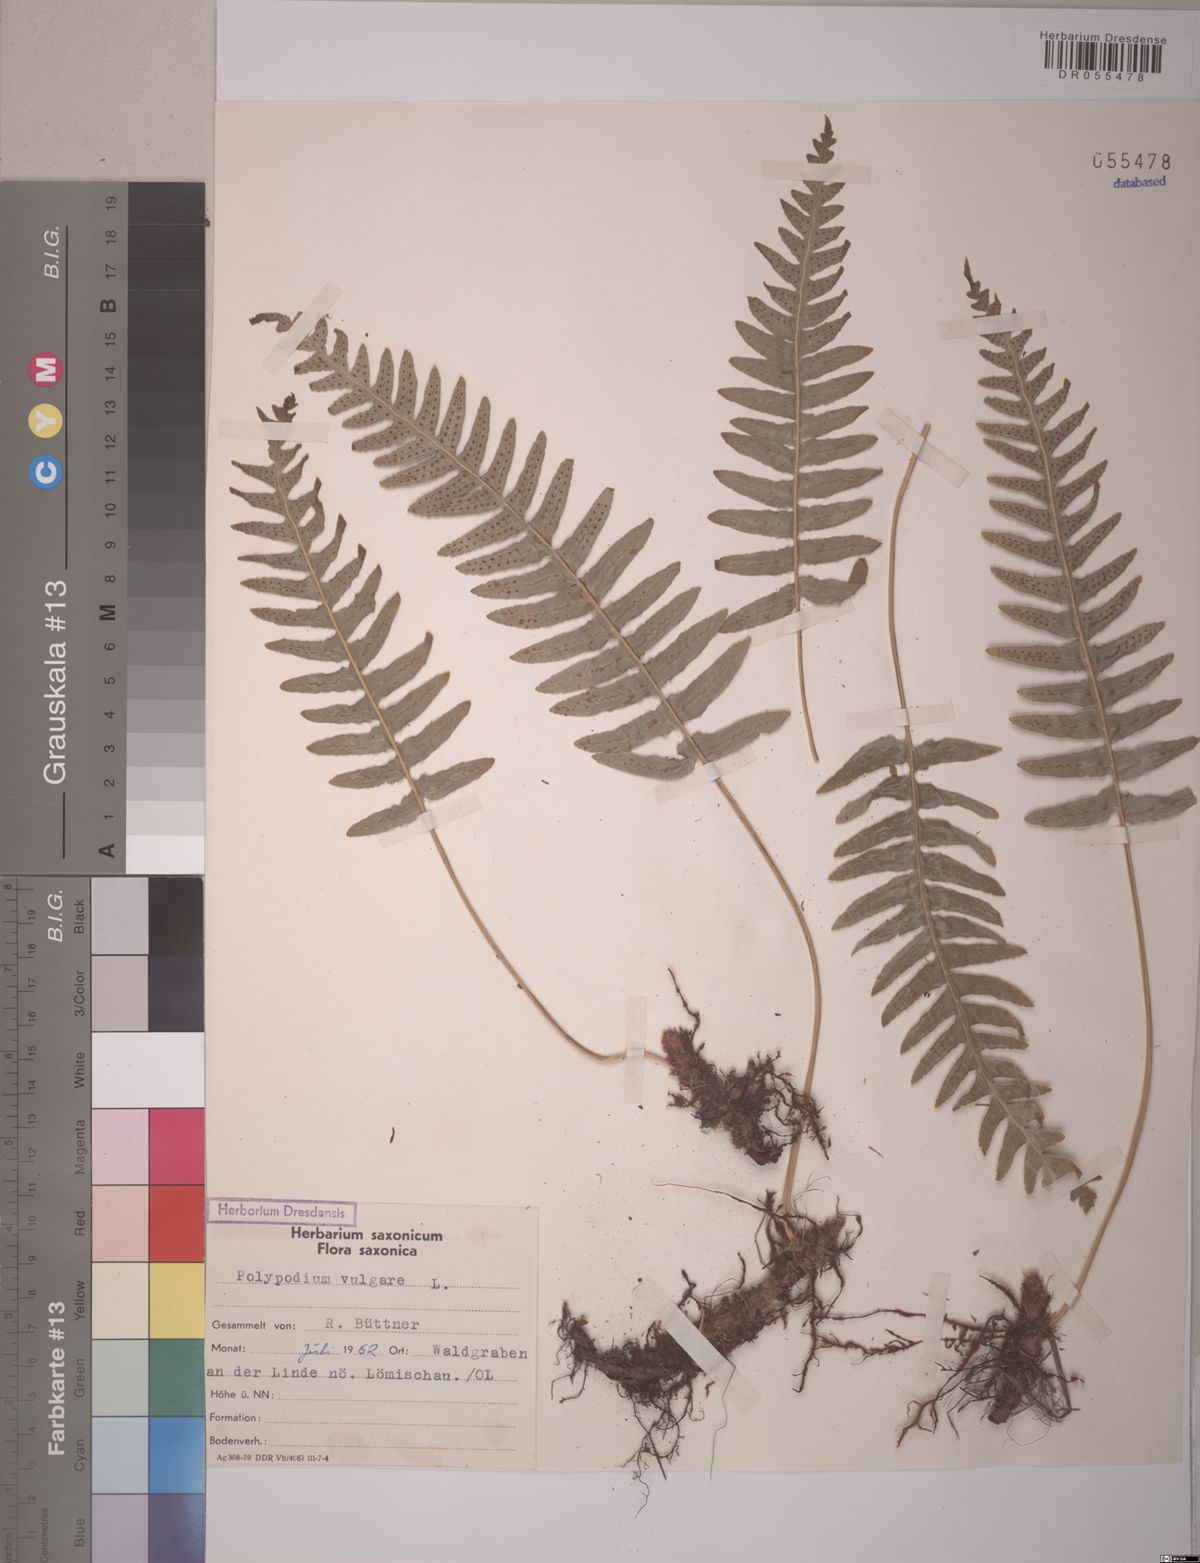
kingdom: Plantae
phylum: Tracheophyta
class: Polypodiopsida
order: Polypodiales
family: Polypodiaceae
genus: Polypodium
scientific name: Polypodium vulgare
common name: Common polypody
